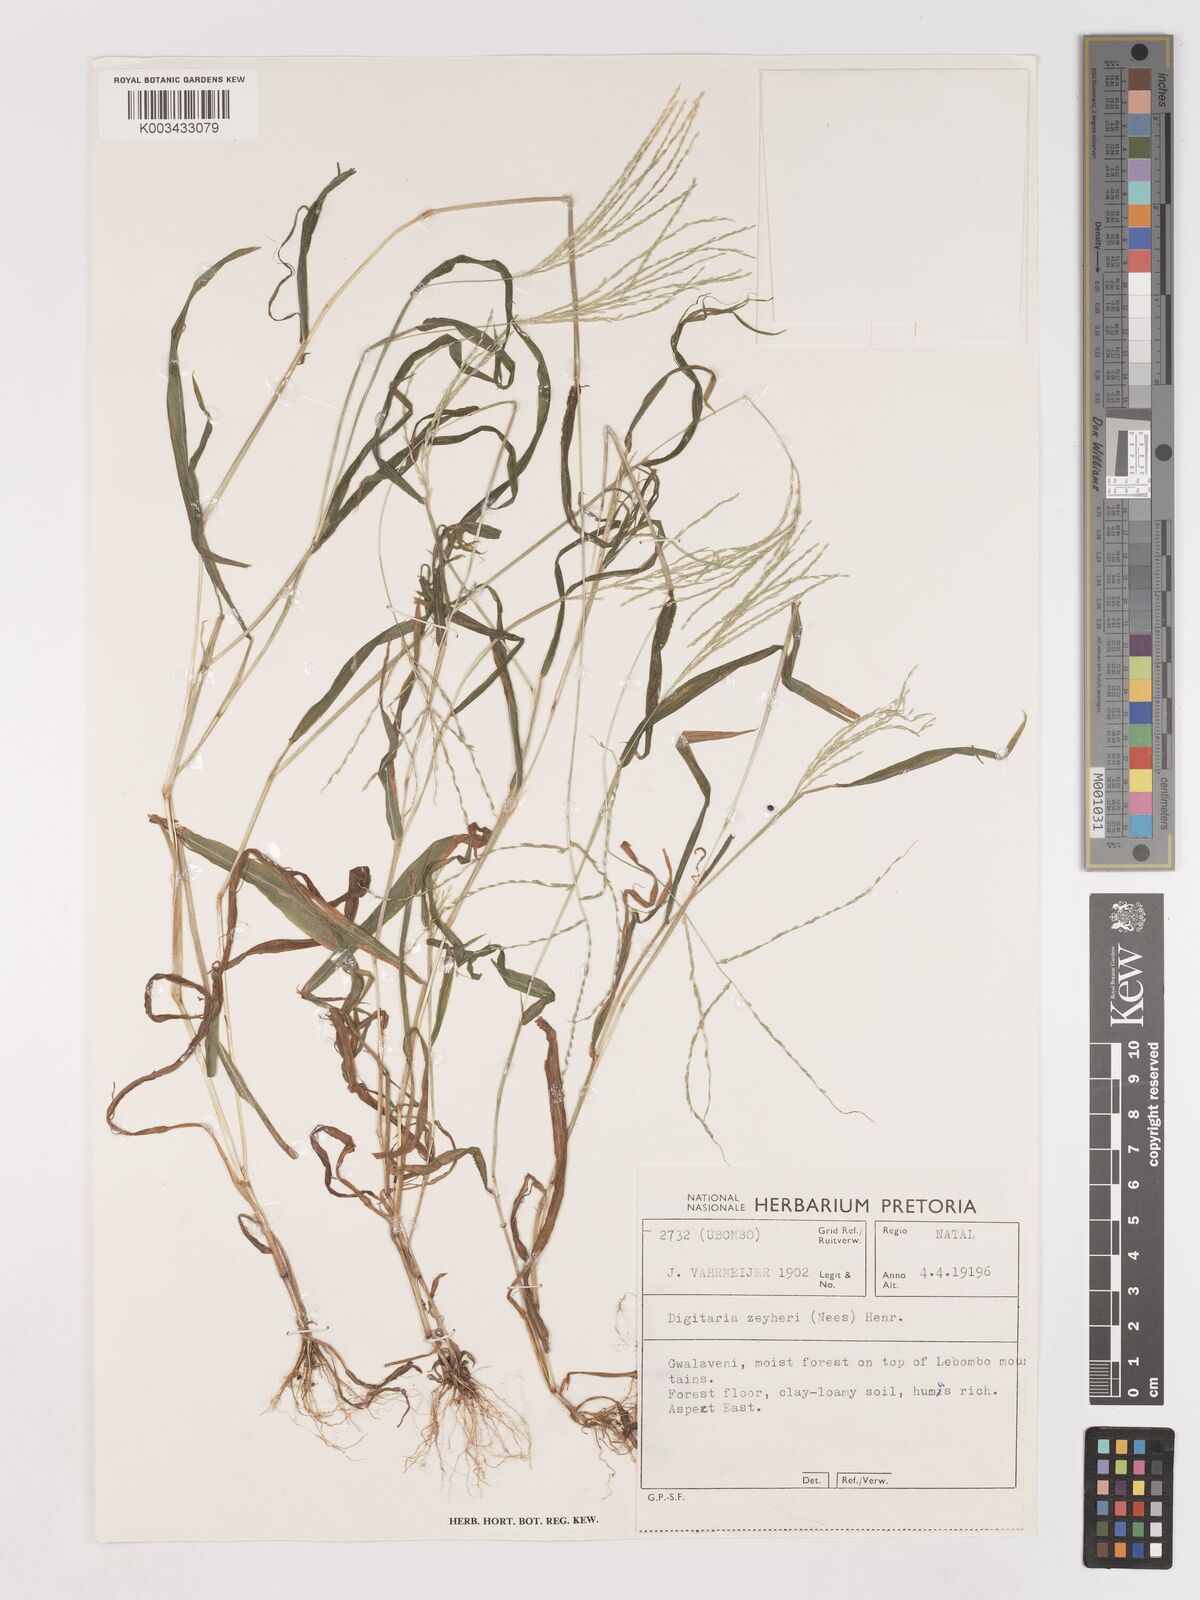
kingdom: Plantae
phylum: Tracheophyta
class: Liliopsida
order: Poales
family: Poaceae
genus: Digitaria
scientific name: Digitaria velutina
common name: Long-plume finger grass
